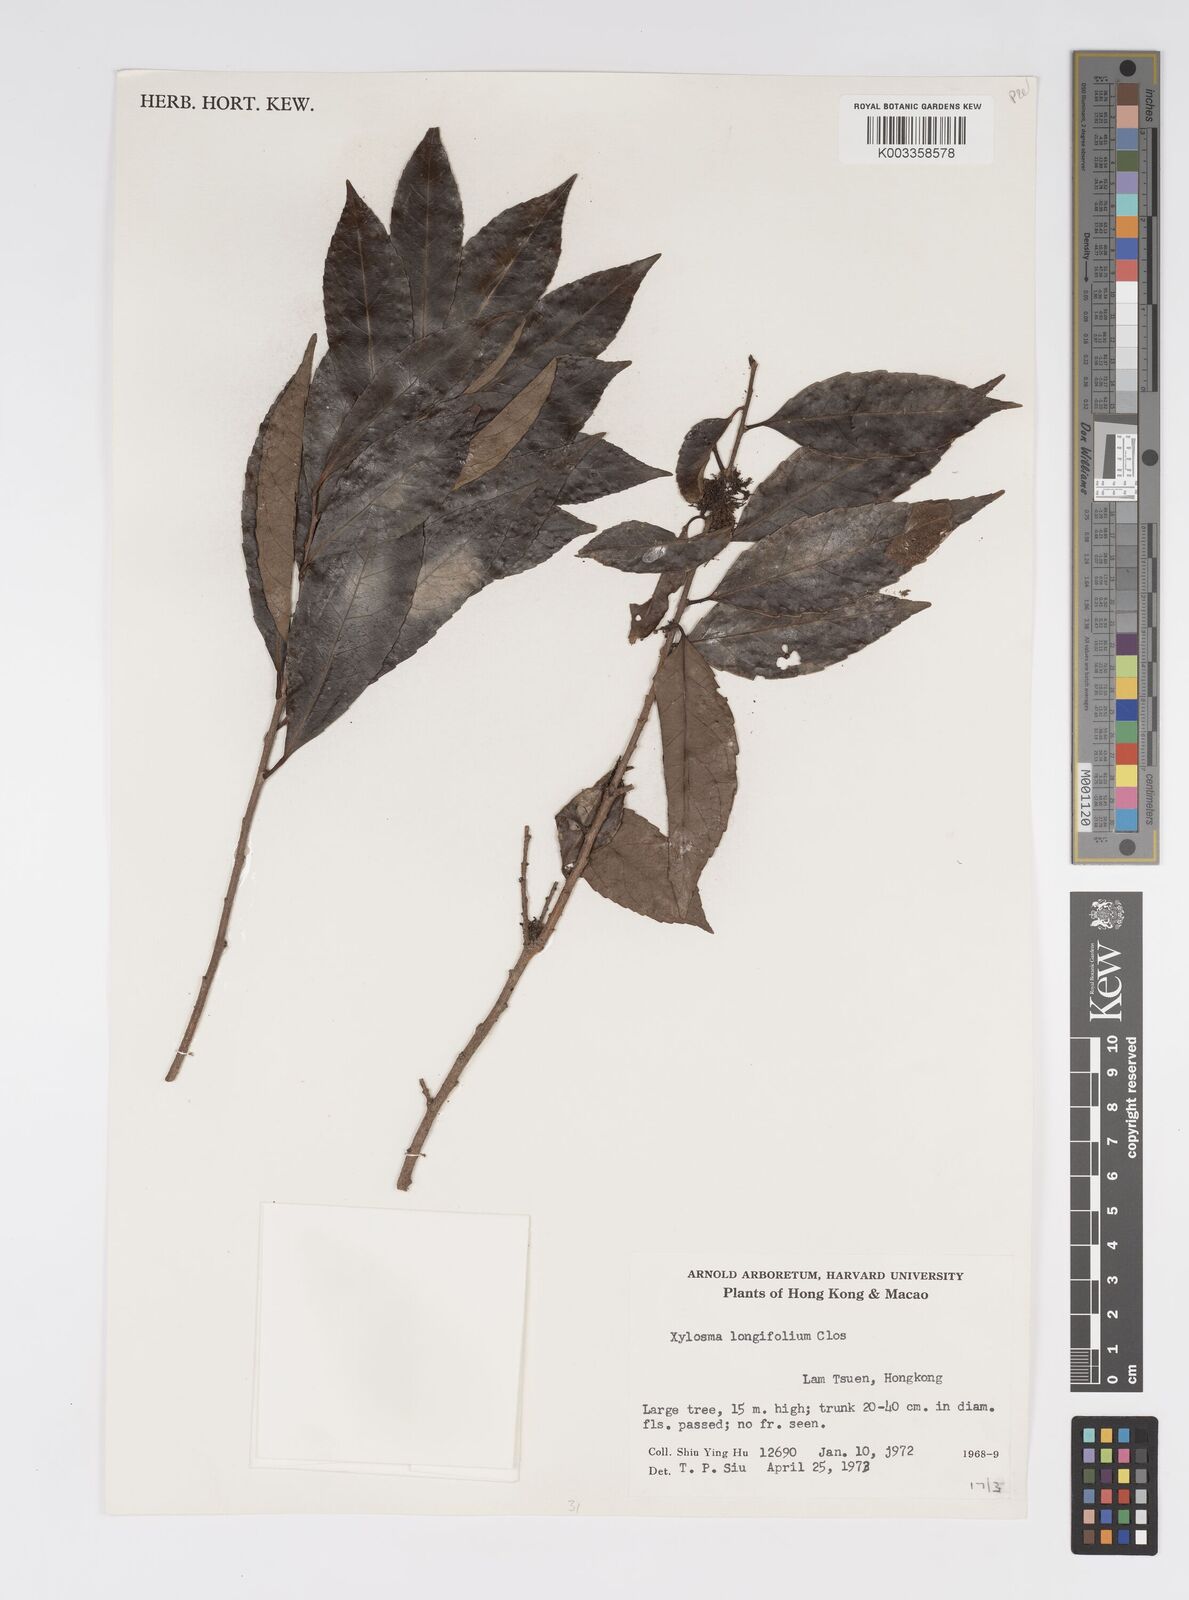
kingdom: Plantae
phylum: Tracheophyta
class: Magnoliopsida
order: Malpighiales
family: Salicaceae
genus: Xylosma
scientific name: Xylosma longifolia
